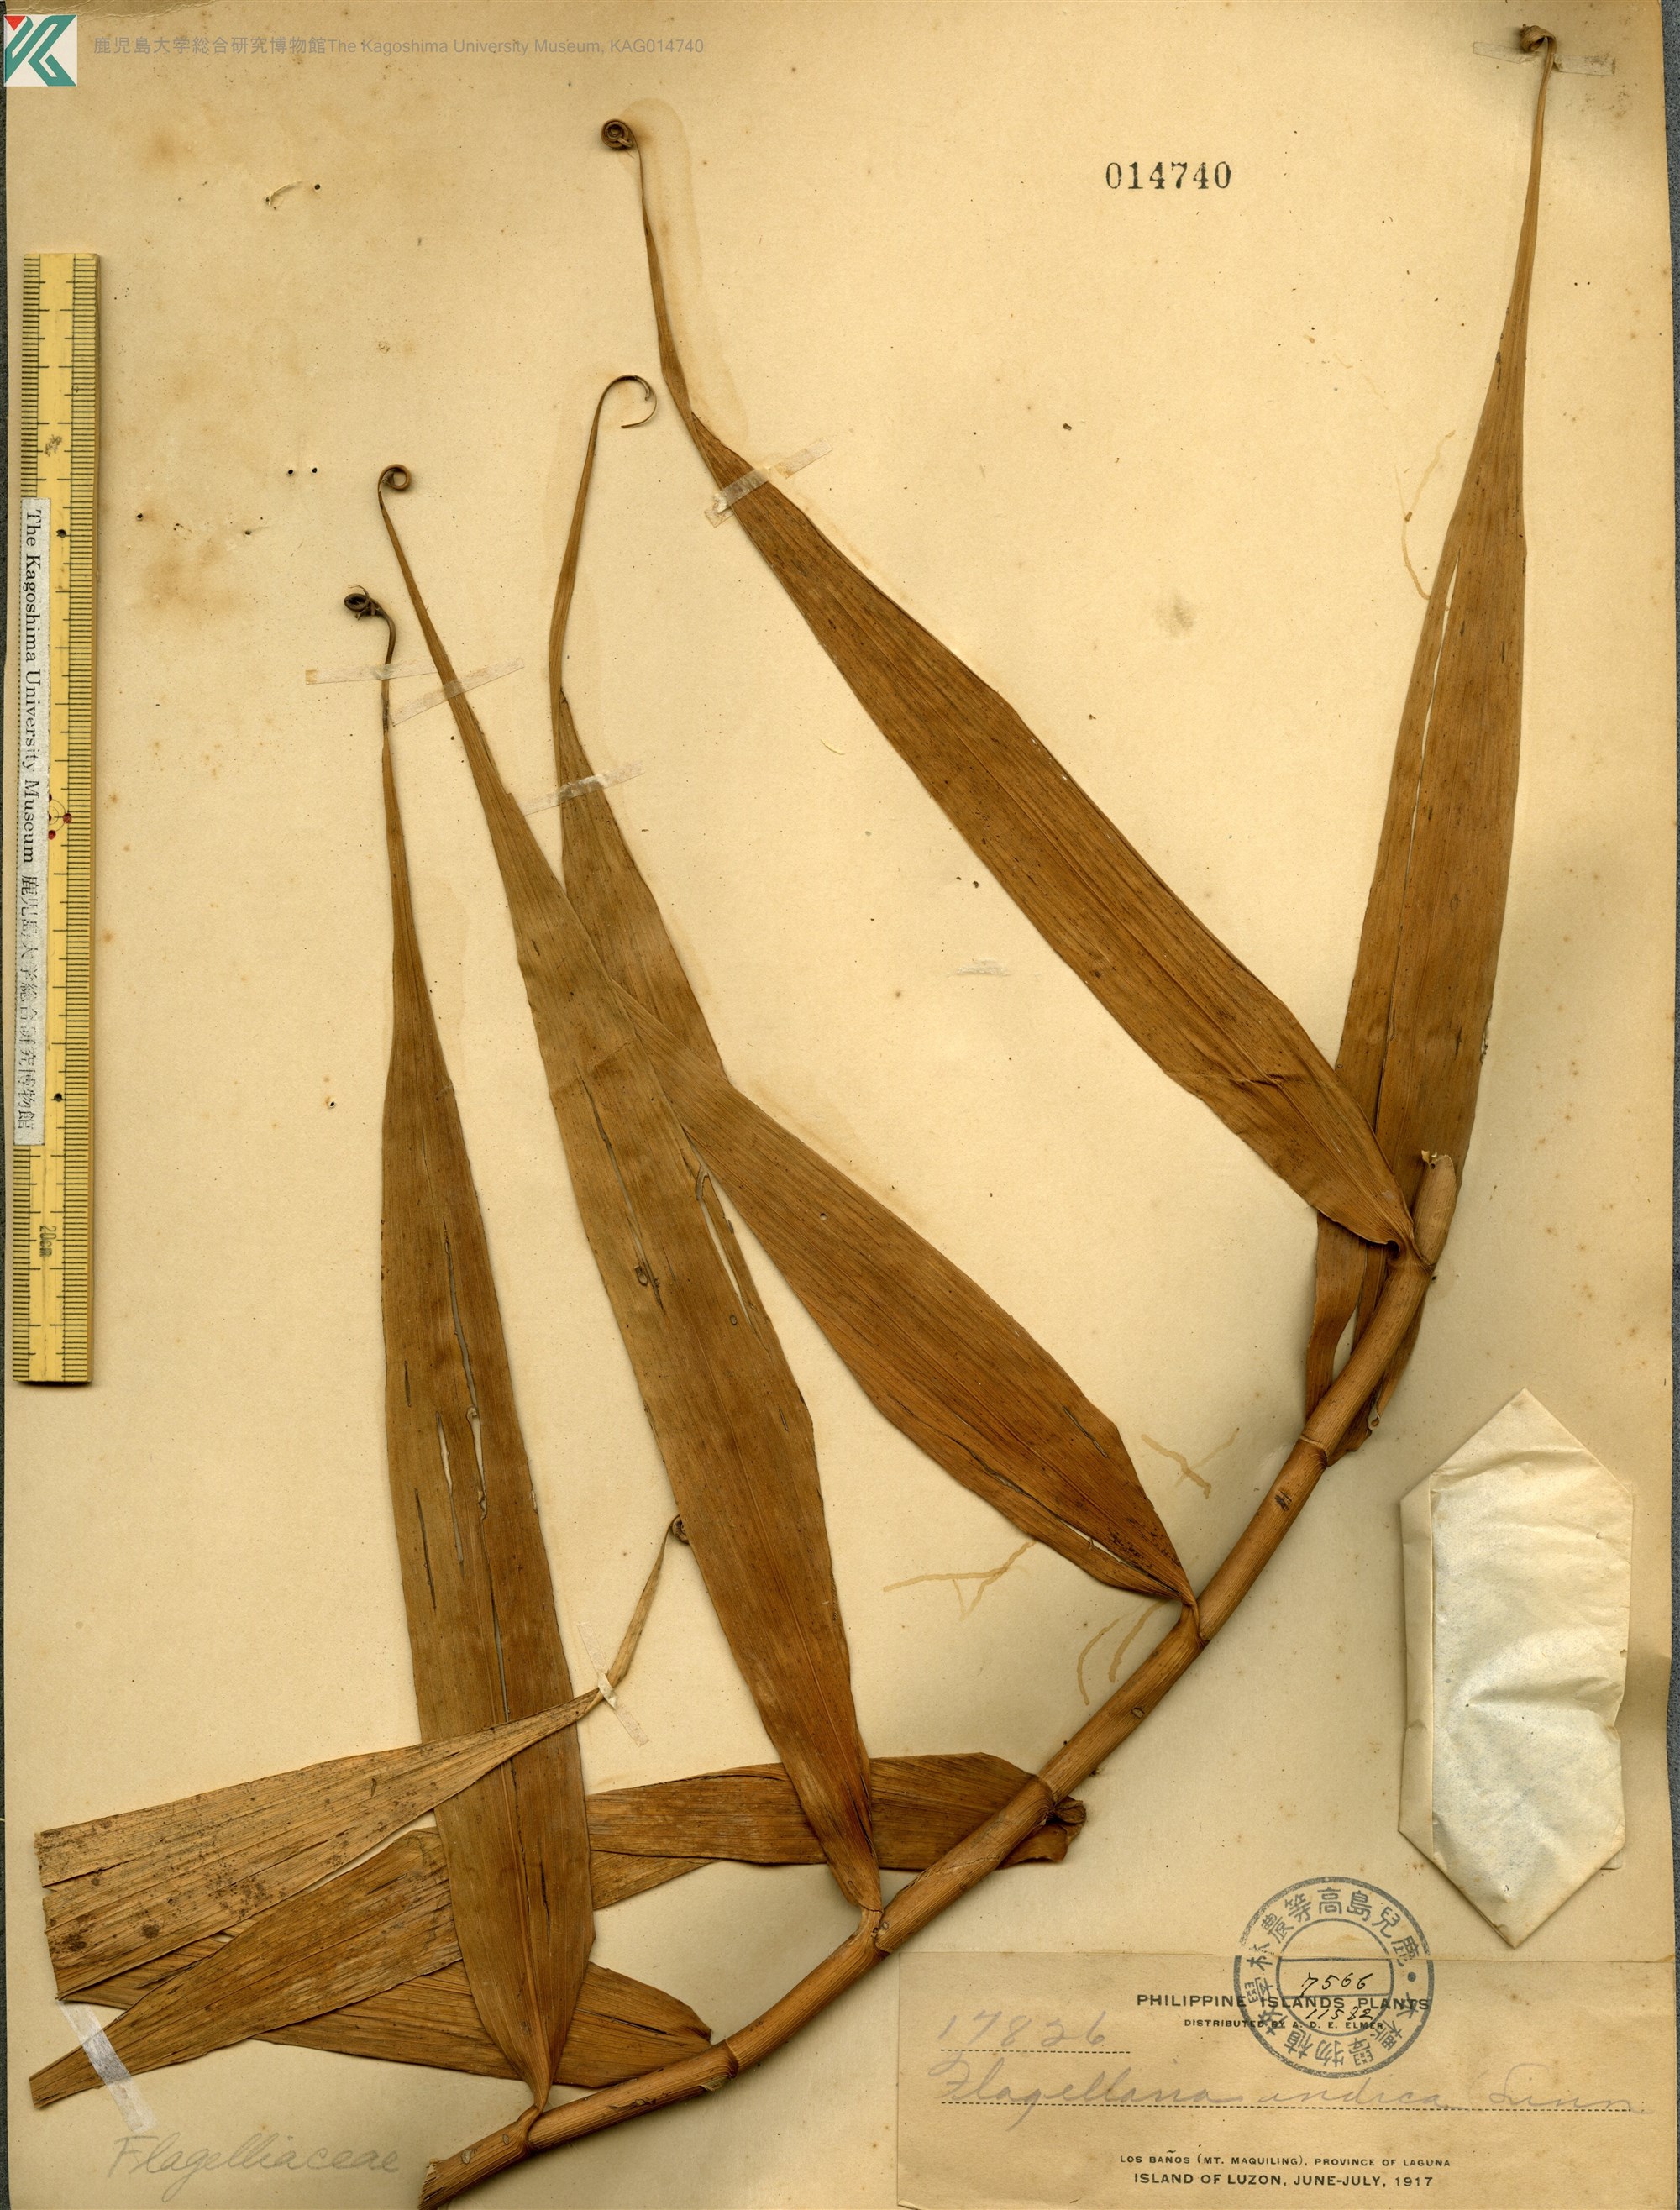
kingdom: Plantae
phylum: Tracheophyta
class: Liliopsida
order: Poales
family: Flagellariaceae
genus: Flagellaria
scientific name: Flagellaria indica
